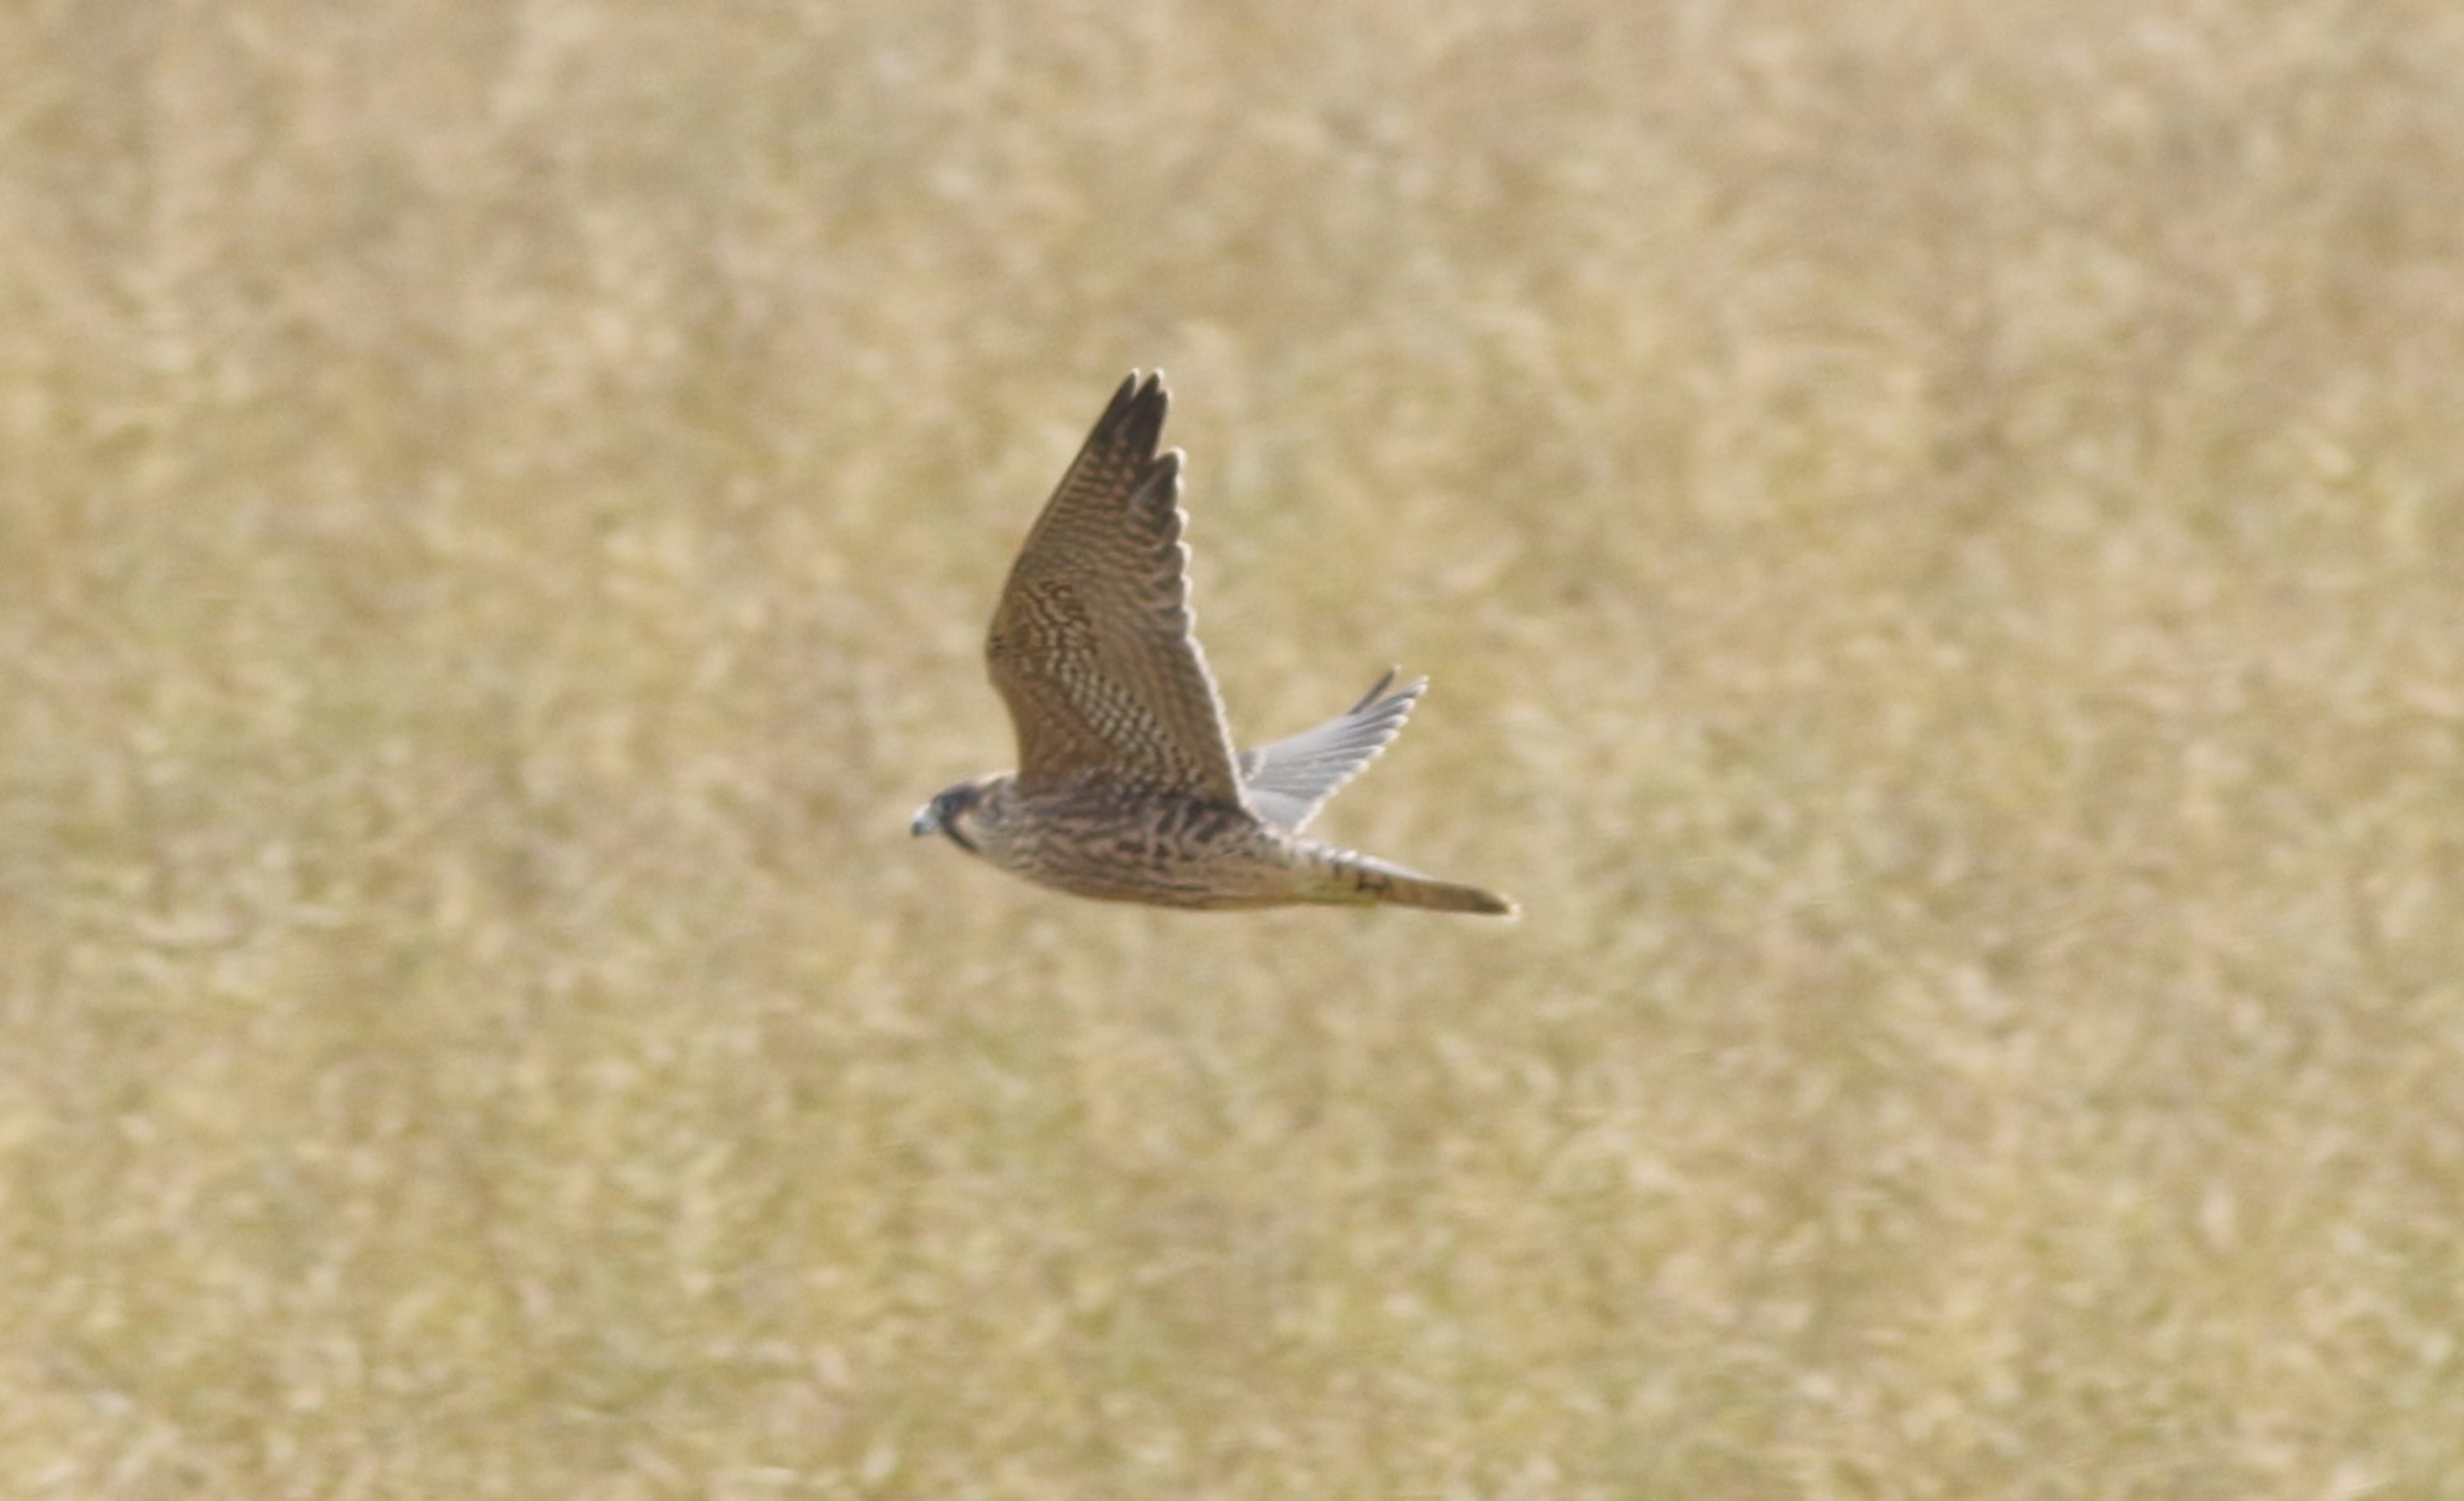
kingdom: Animalia
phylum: Chordata
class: Aves
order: Falconiformes
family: Falconidae
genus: Falco
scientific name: Falco peregrinus
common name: Vandrefalk
